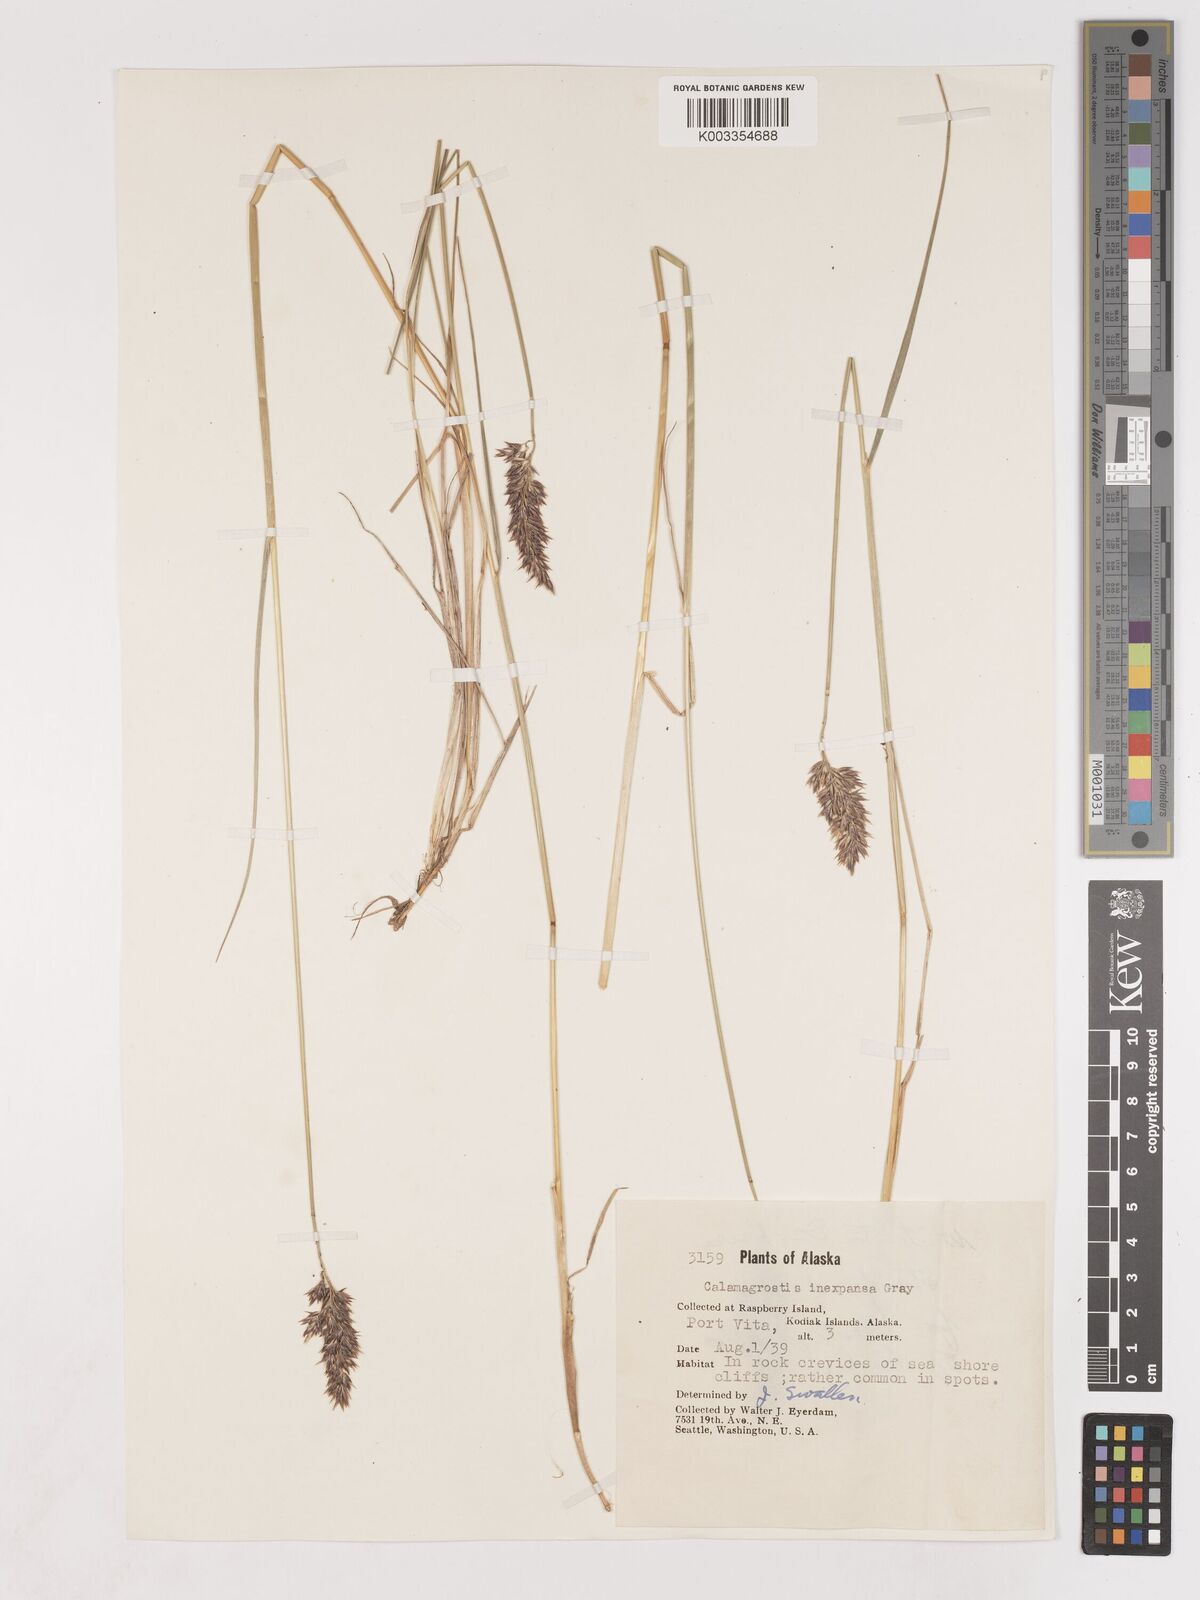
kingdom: Plantae
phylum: Tracheophyta
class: Liliopsida
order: Poales
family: Poaceae
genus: Cinnagrostis
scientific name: Cinnagrostis recta
